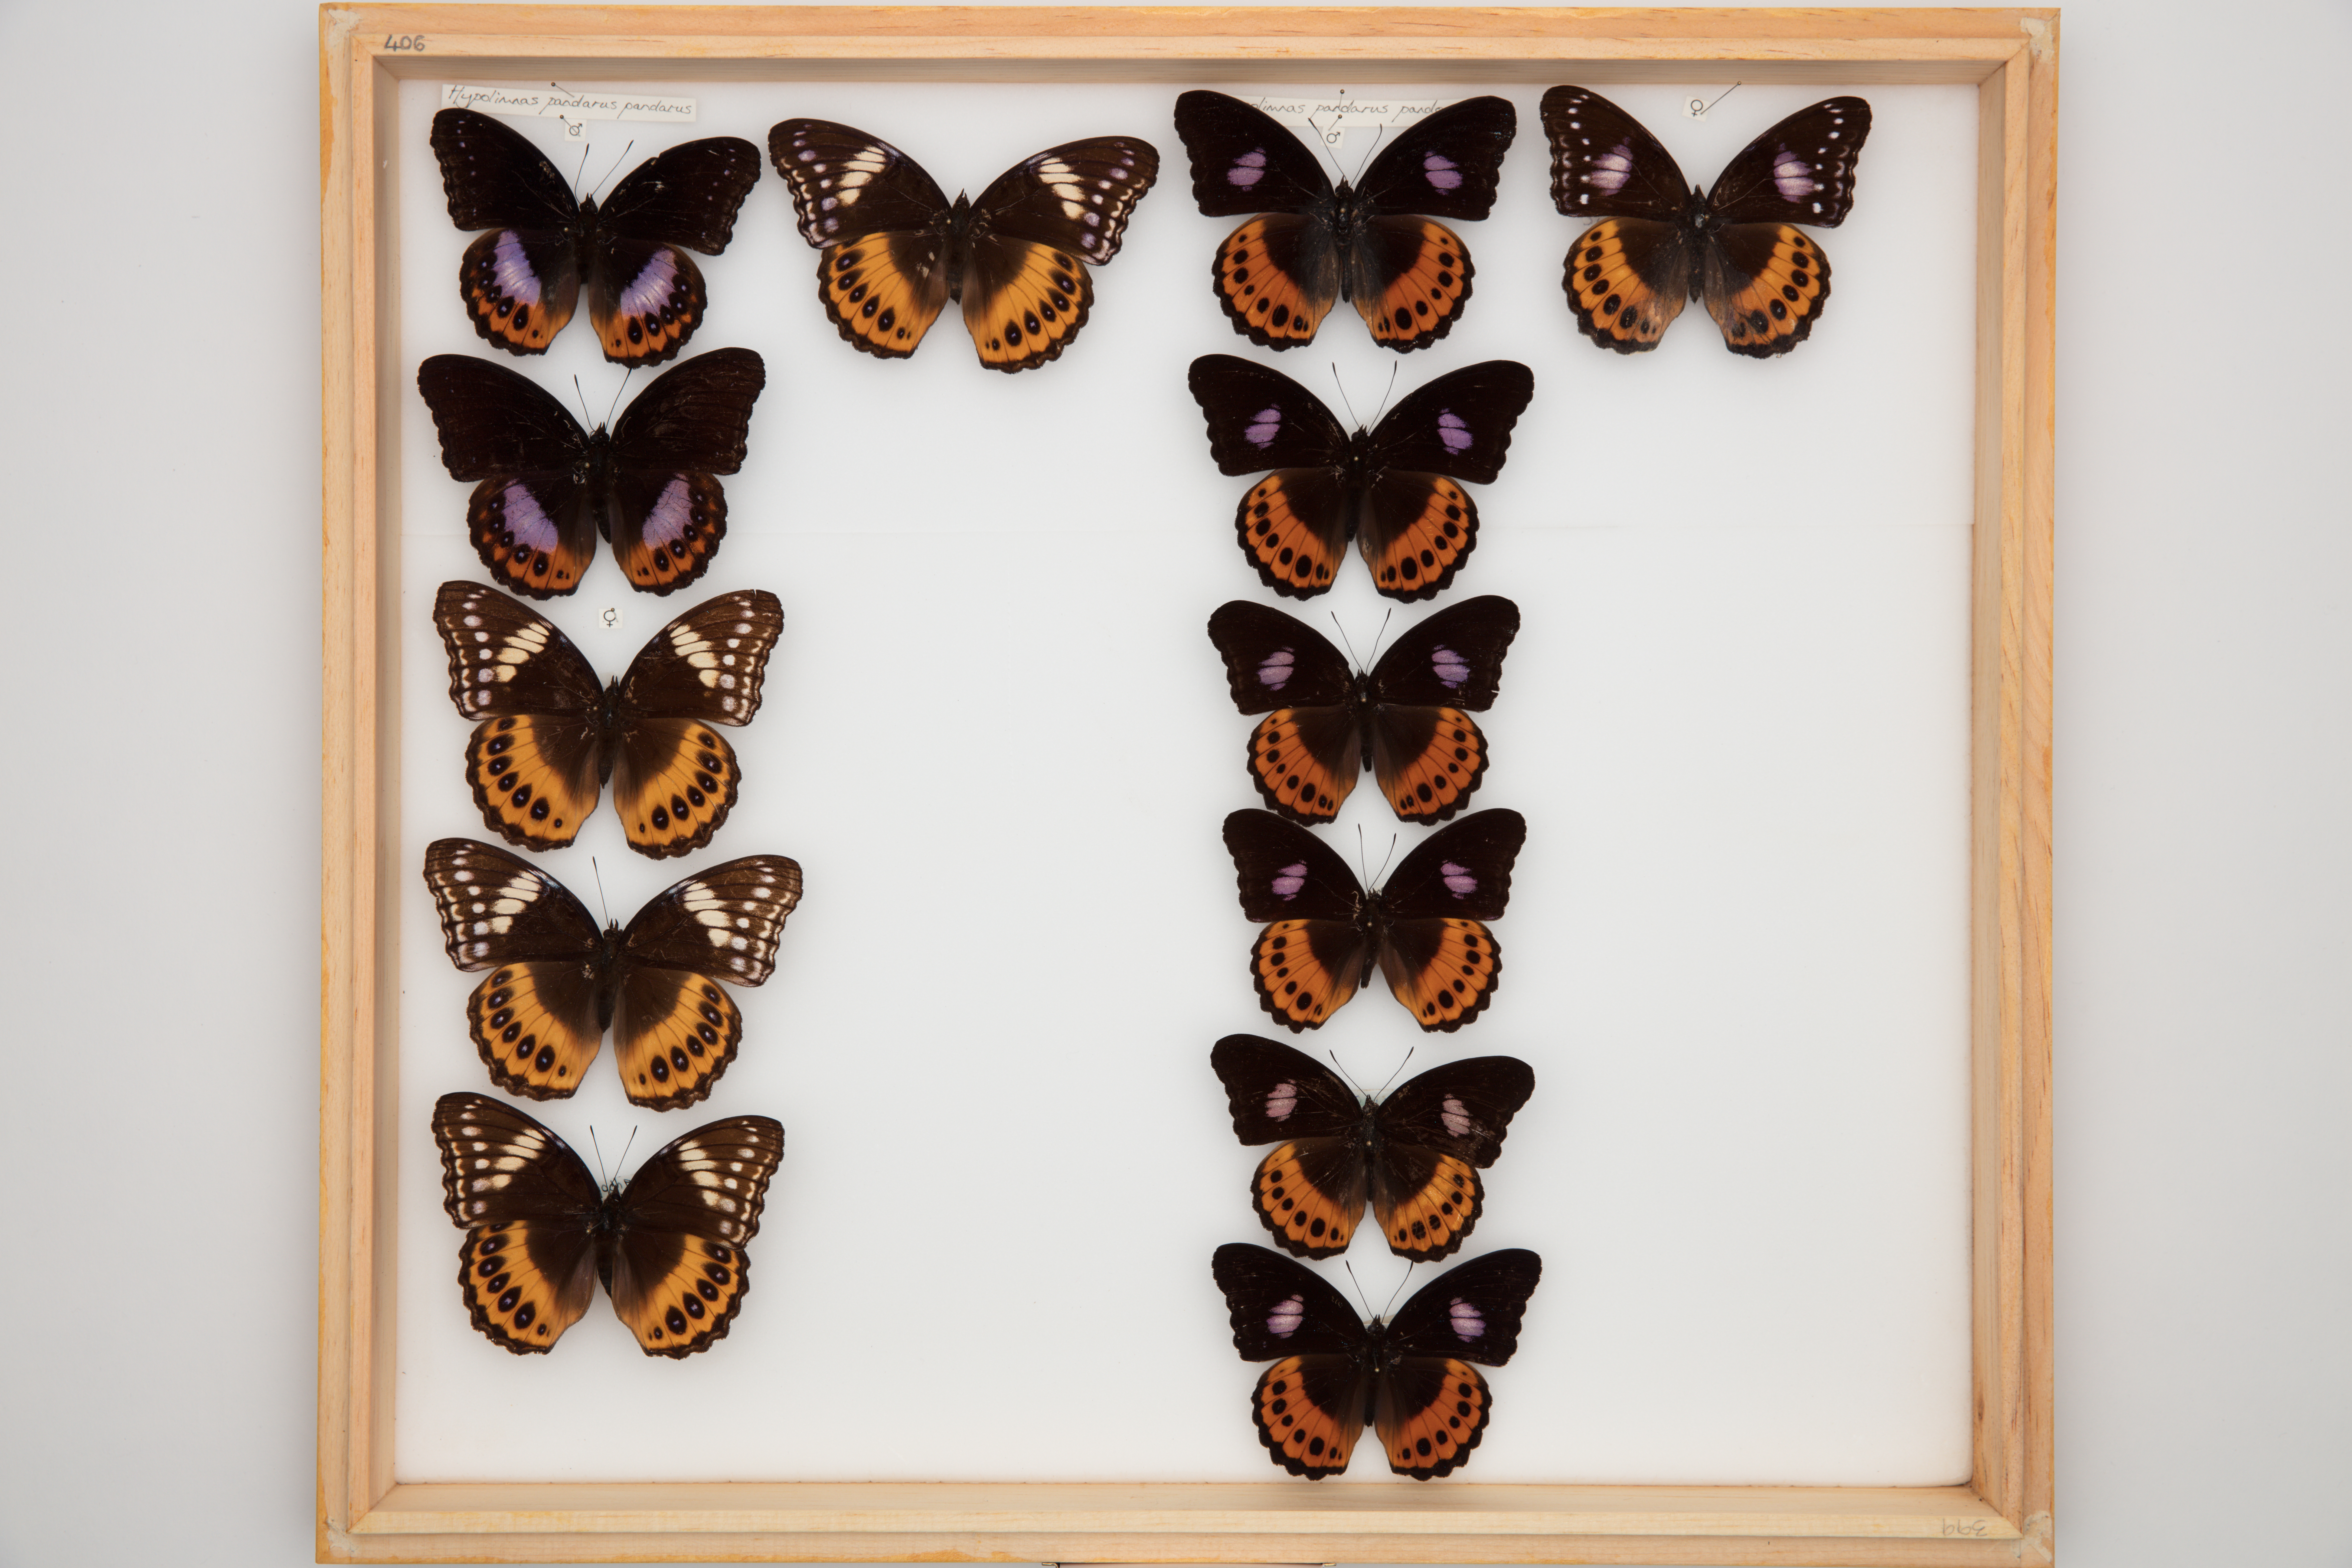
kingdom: Animalia
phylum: Arthropoda
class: Insecta
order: Lepidoptera
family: Nymphalidae
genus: Hypolimnas
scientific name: Hypolimnas pandarus
